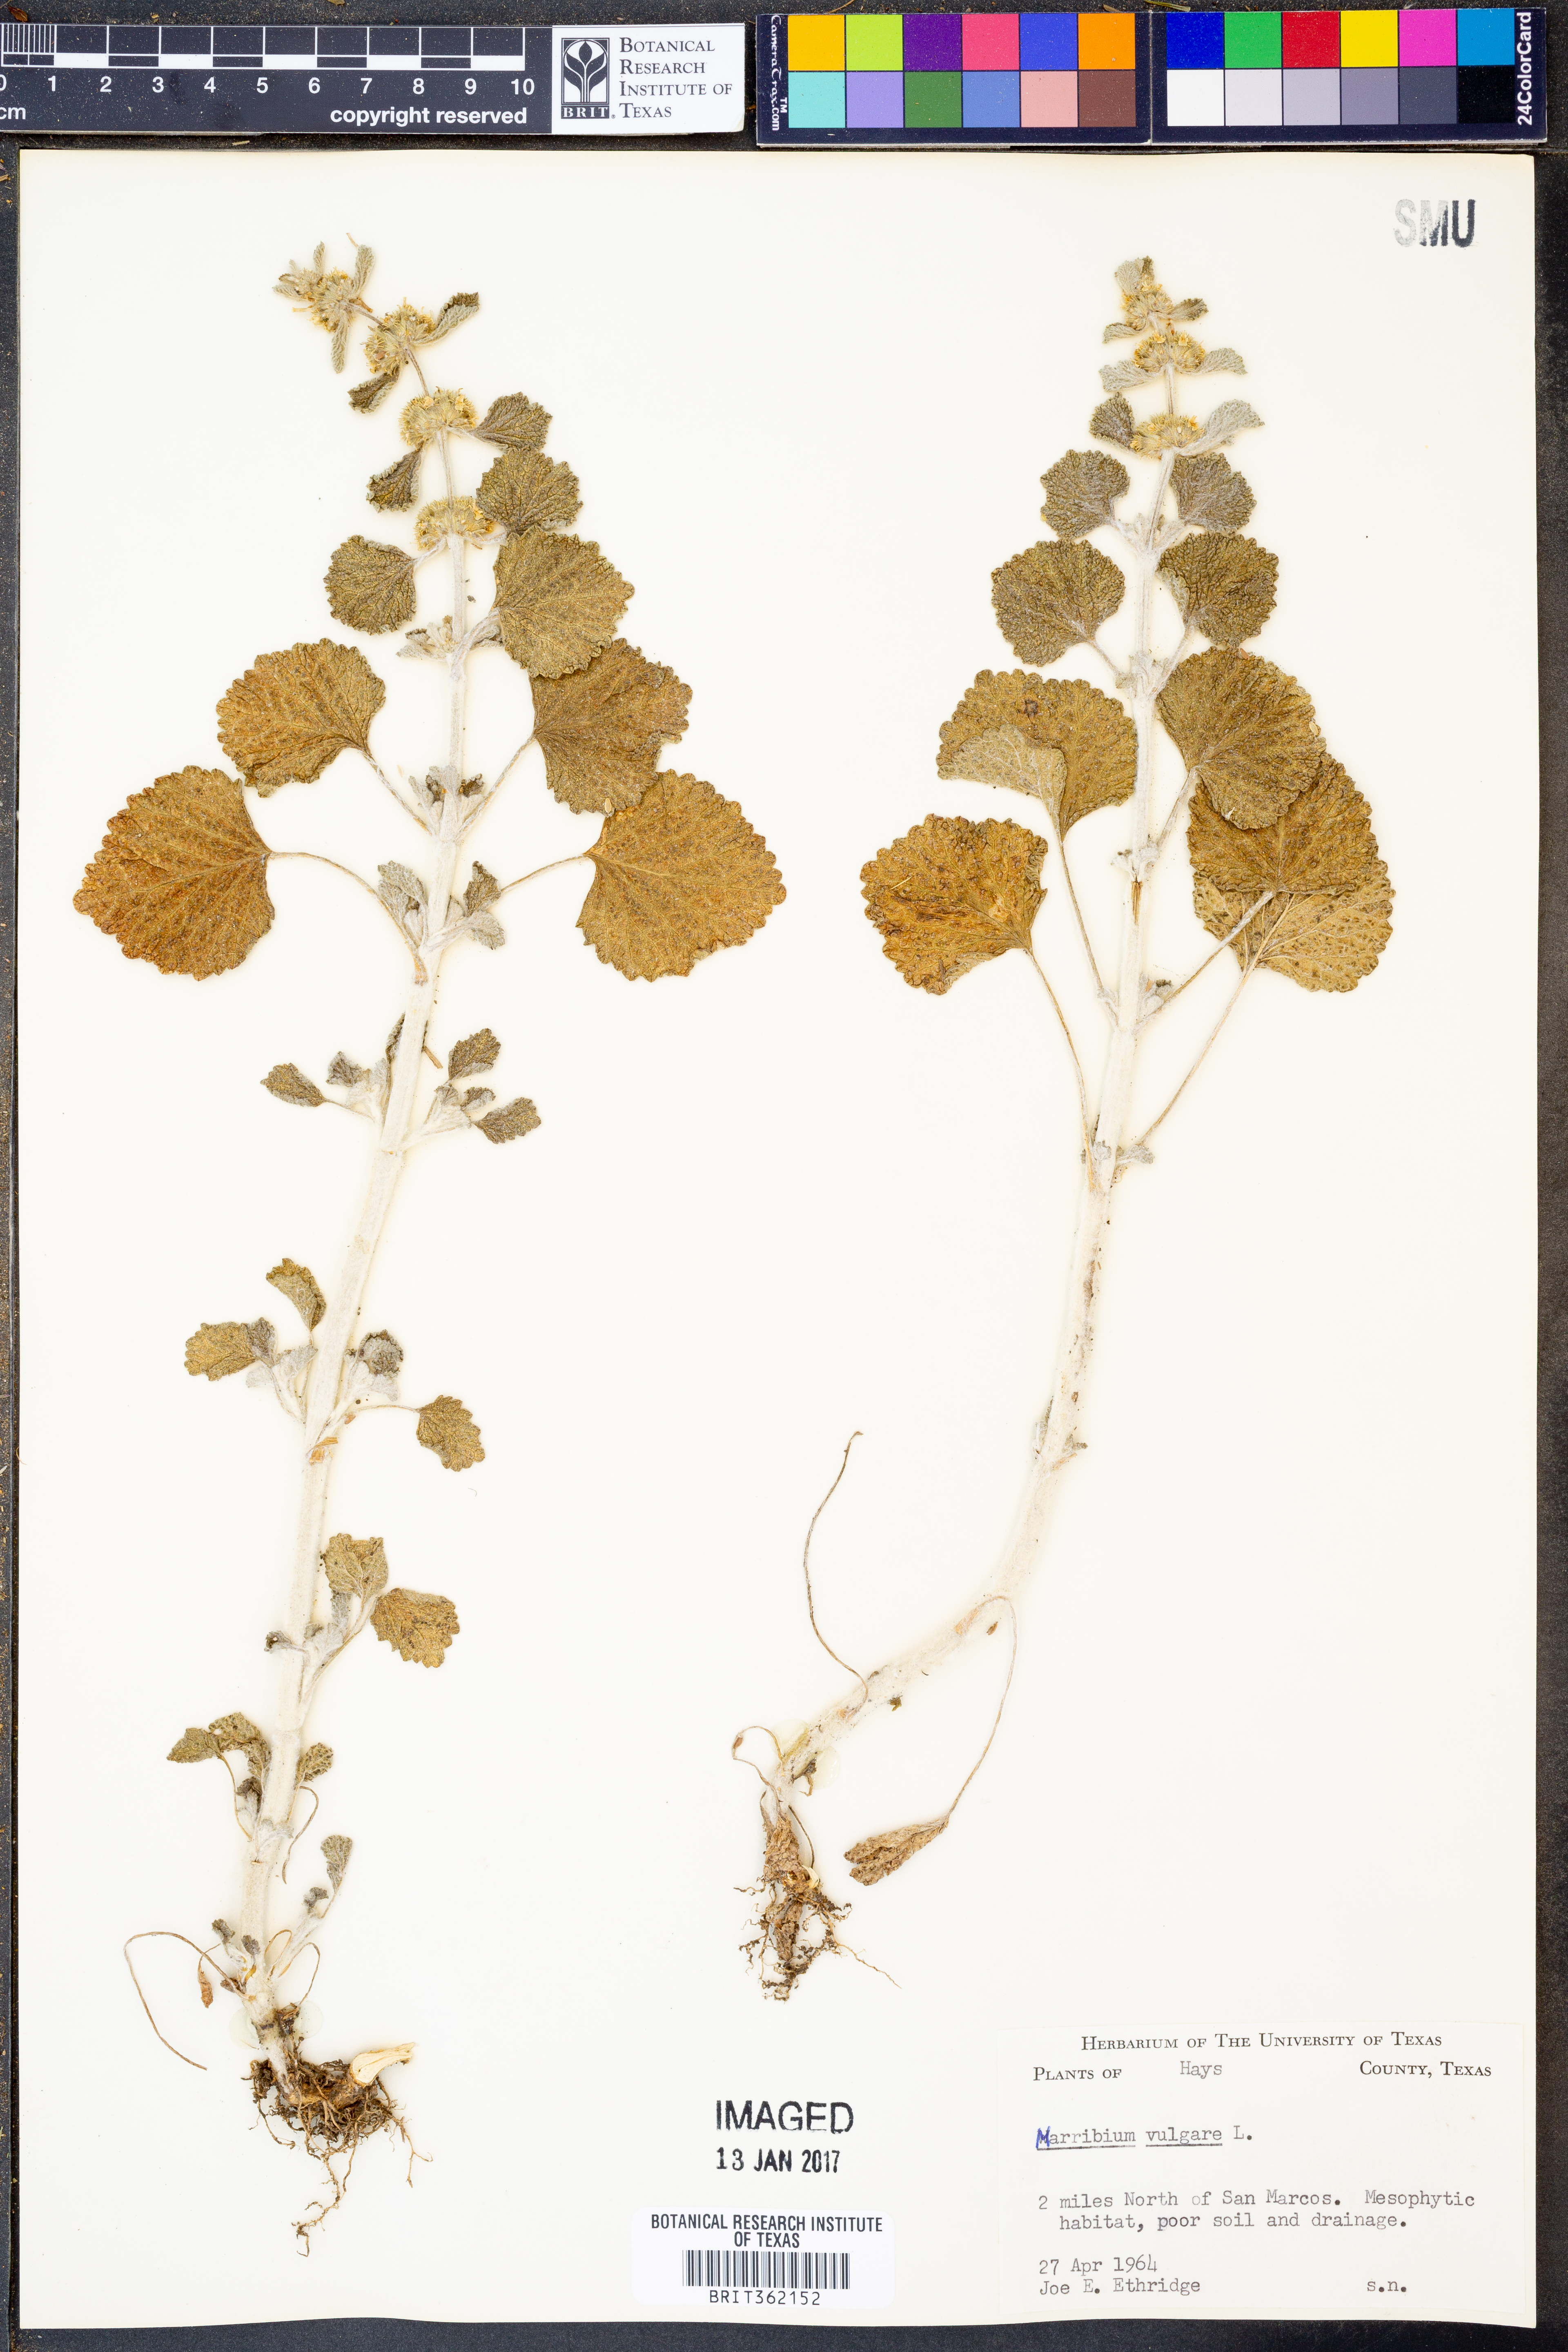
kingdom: Plantae
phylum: Tracheophyta
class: Magnoliopsida
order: Lamiales
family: Lamiaceae
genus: Marrubium
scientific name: Marrubium vulgare
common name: Horehound
